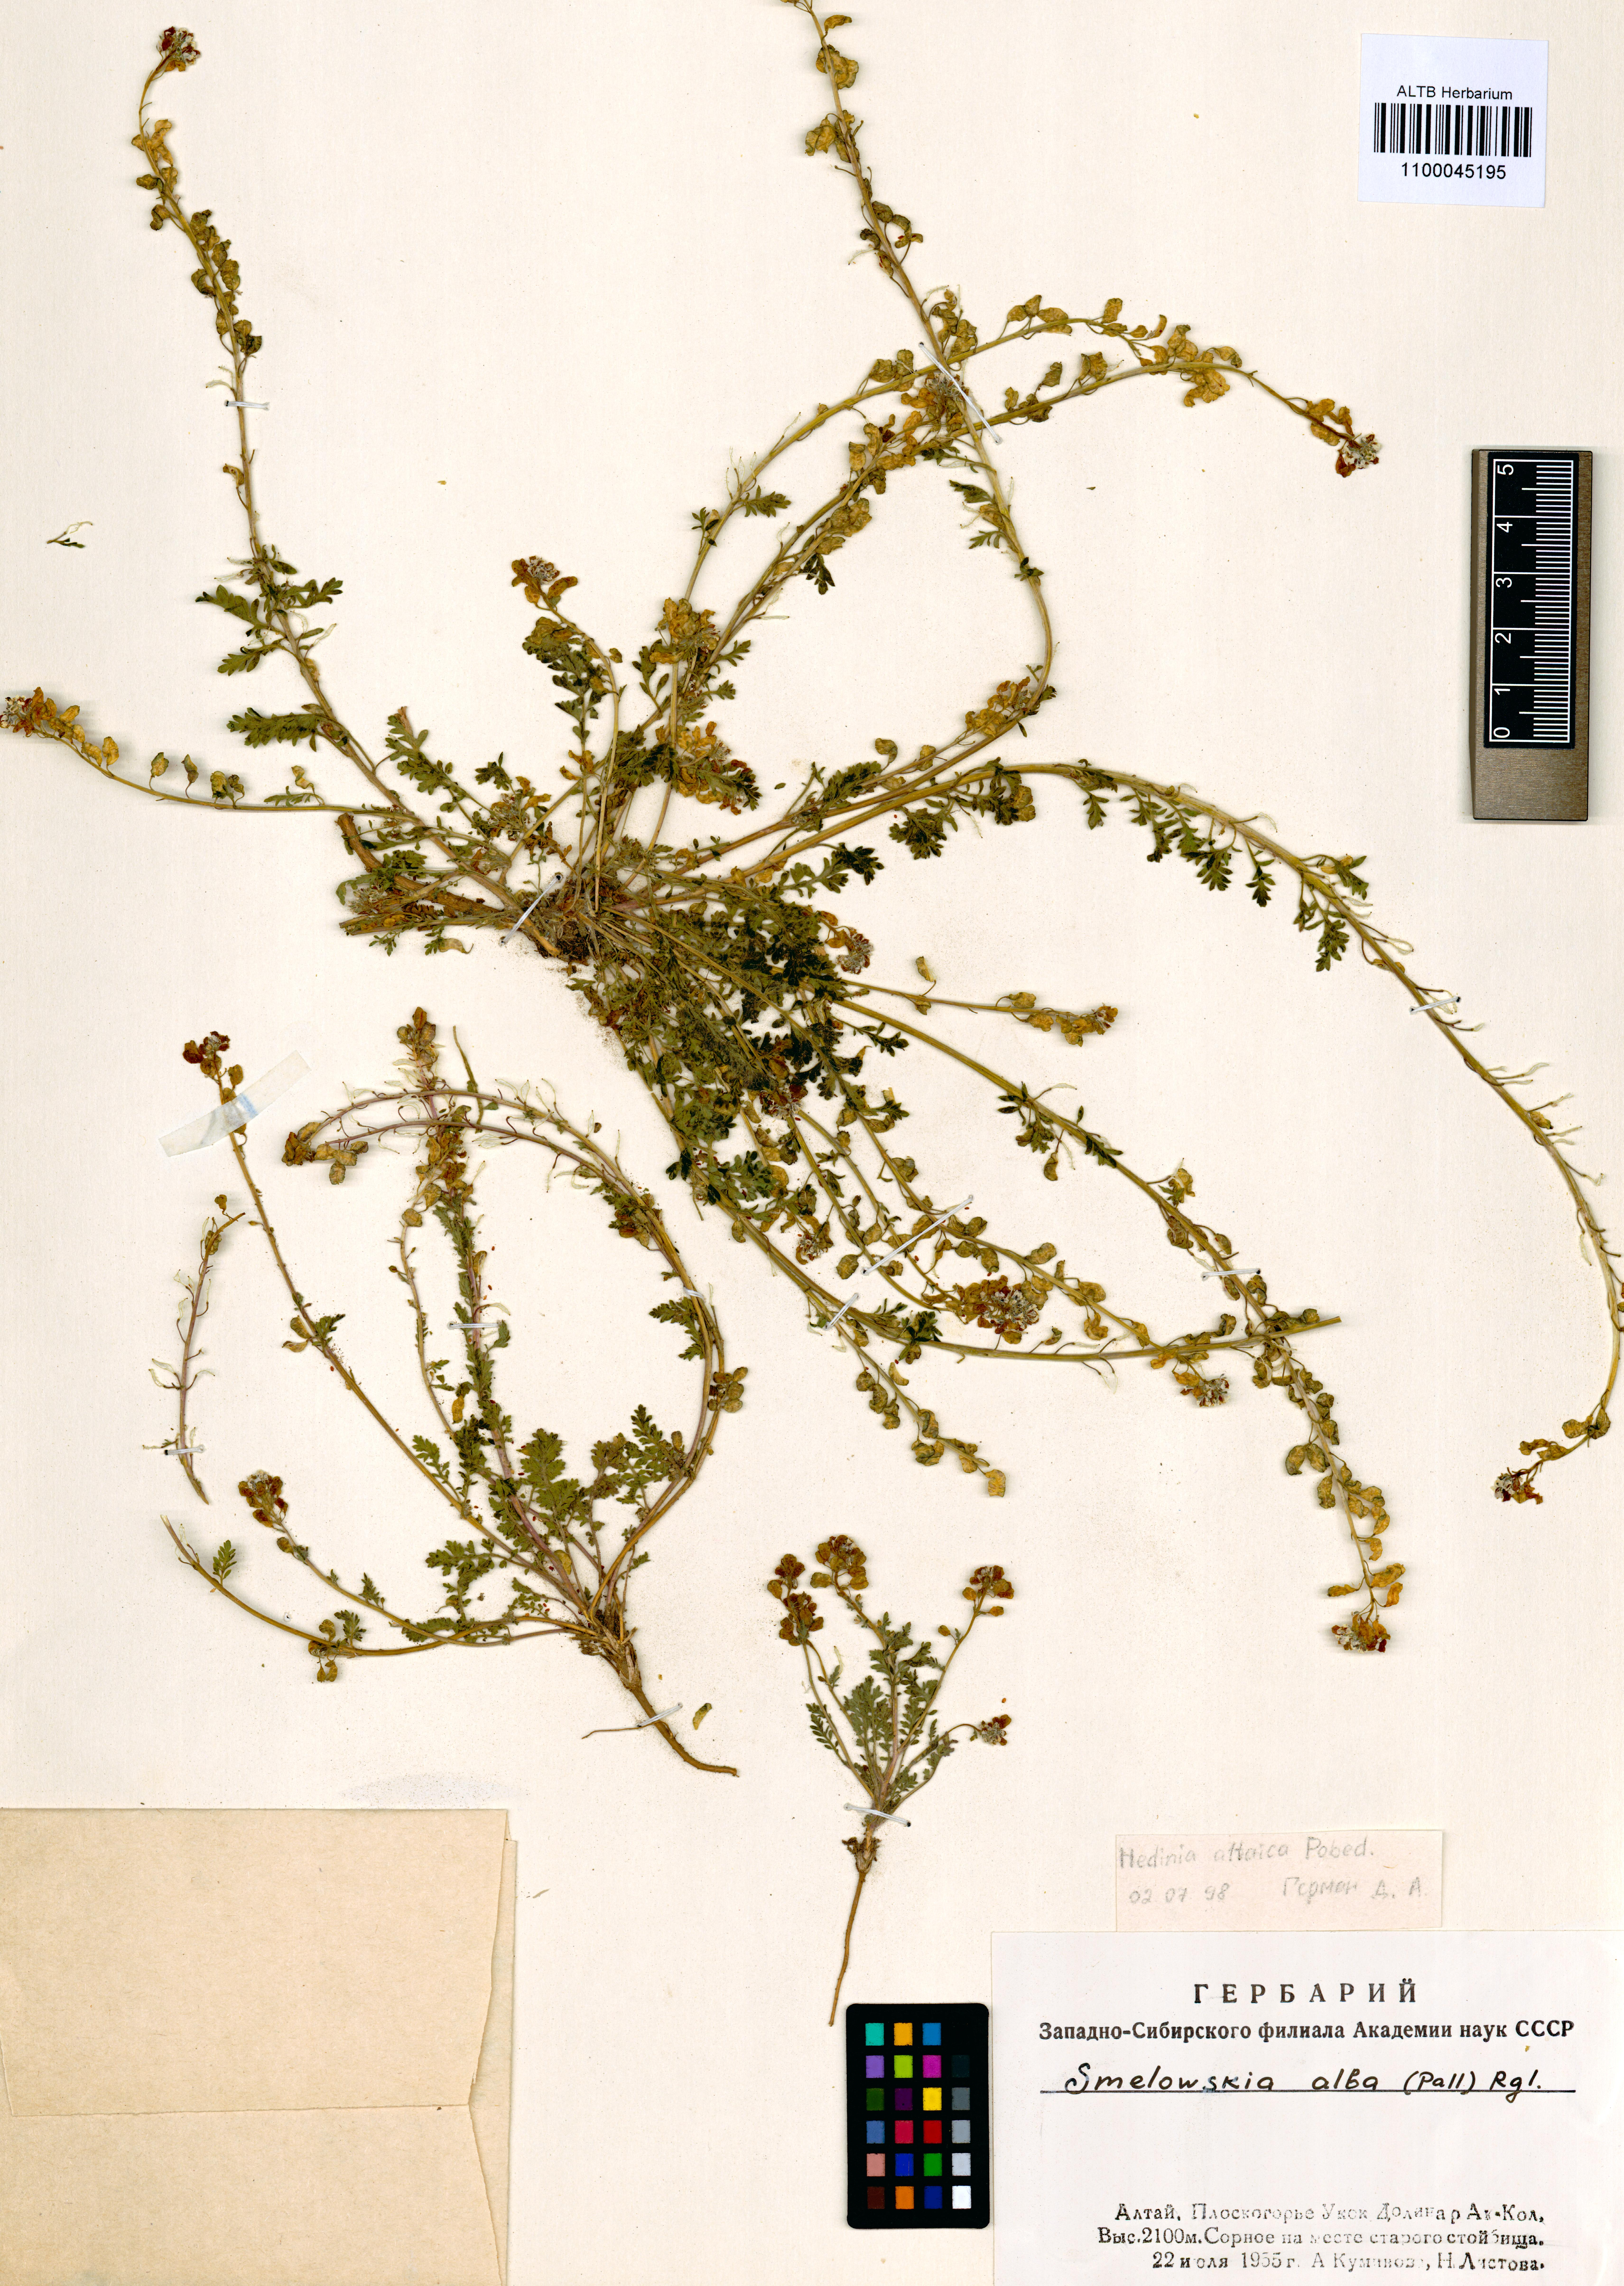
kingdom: Plantae
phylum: Tracheophyta
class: Magnoliopsida
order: Brassicales
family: Brassicaceae
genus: Smelowskia
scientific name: Smelowskia altaica
